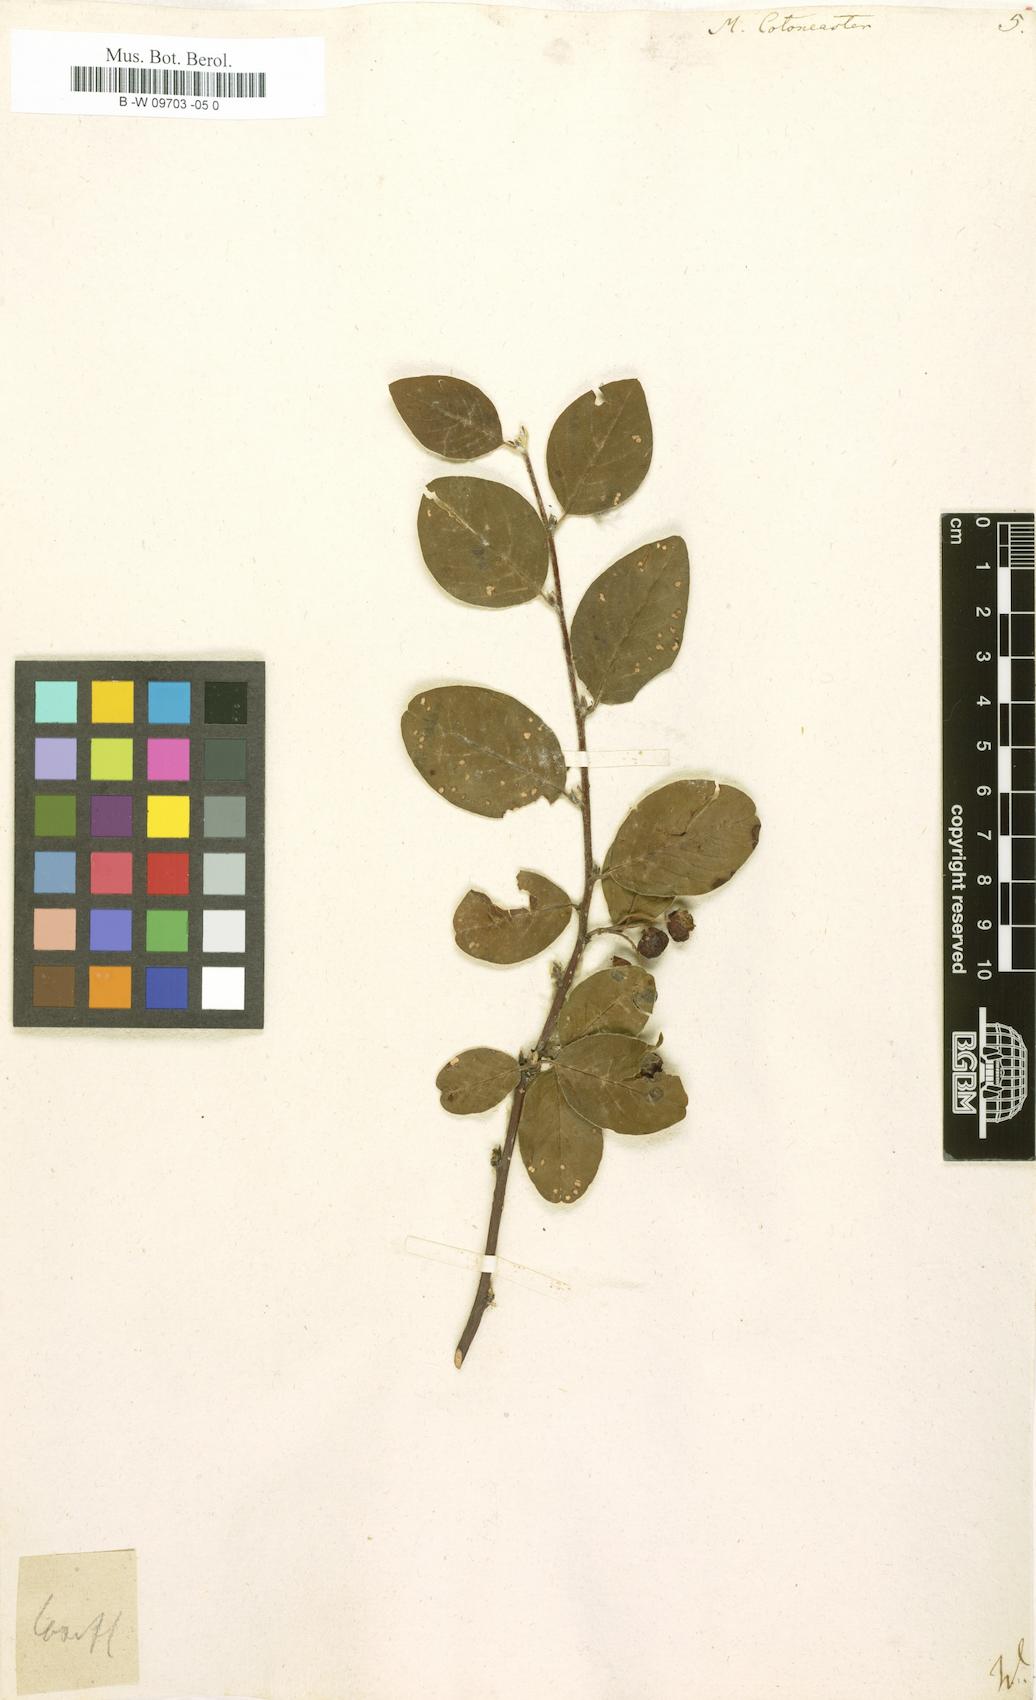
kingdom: Plantae
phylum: Tracheophyta
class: Magnoliopsida
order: Rosales
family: Rosaceae
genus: Cotoneaster
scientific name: Cotoneaster integerrimus
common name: Wild cotoneaster
